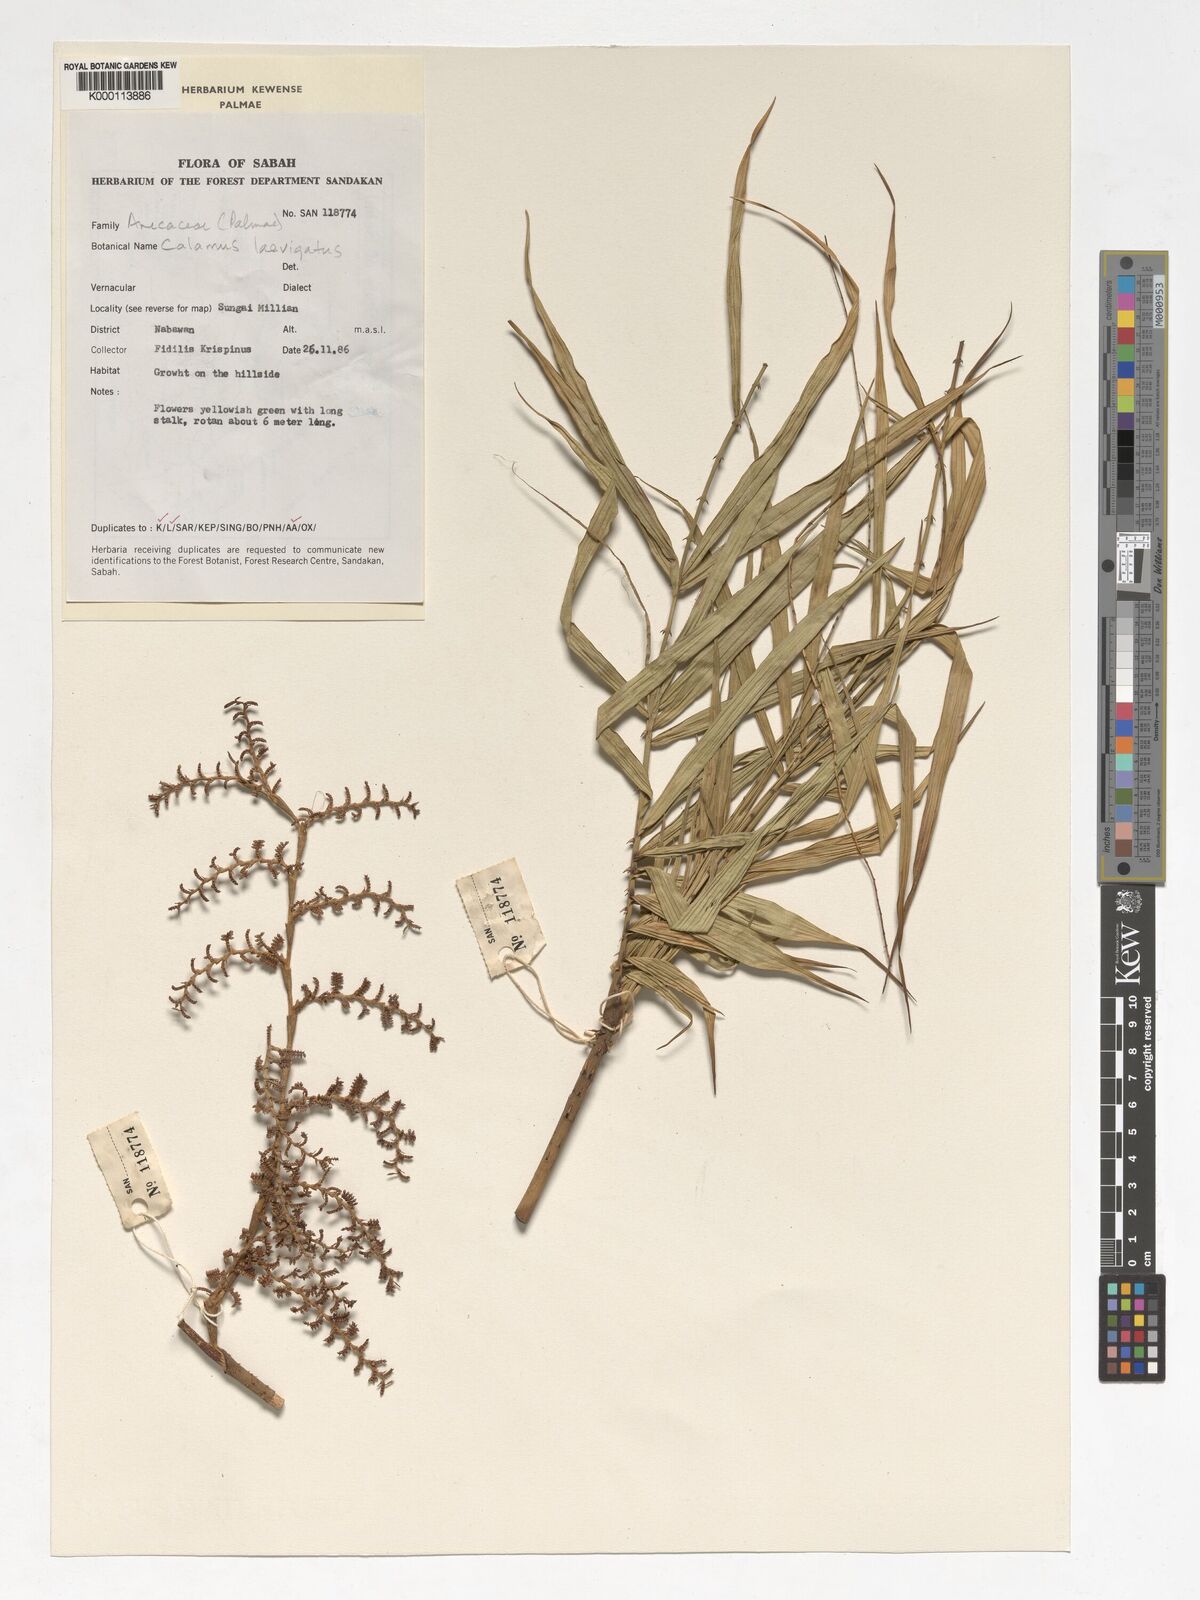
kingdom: Plantae
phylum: Tracheophyta
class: Liliopsida
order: Arecales
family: Arecaceae
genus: Calamus
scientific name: Calamus
